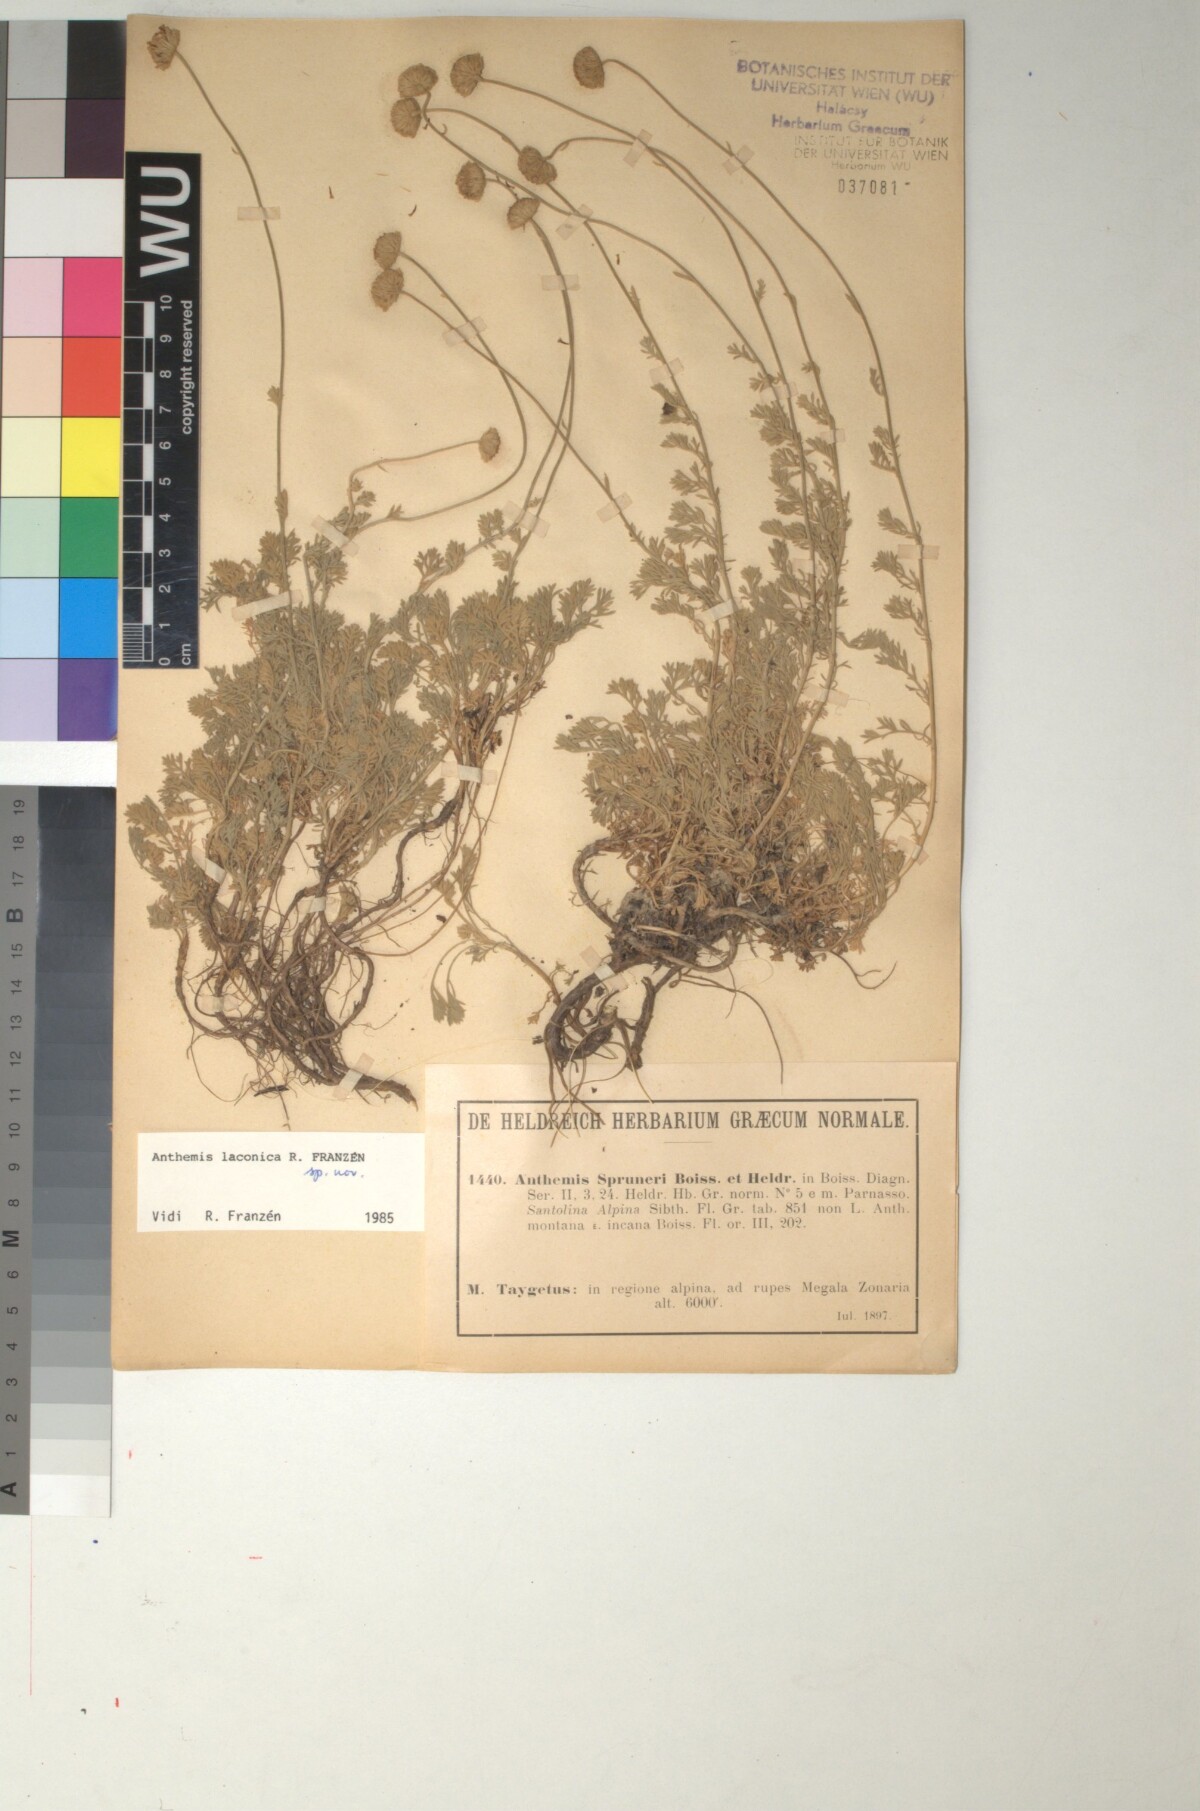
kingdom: Plantae
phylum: Tracheophyta
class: Magnoliopsida
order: Asterales
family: Asteraceae
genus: Anthemis
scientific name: Anthemis laconica
